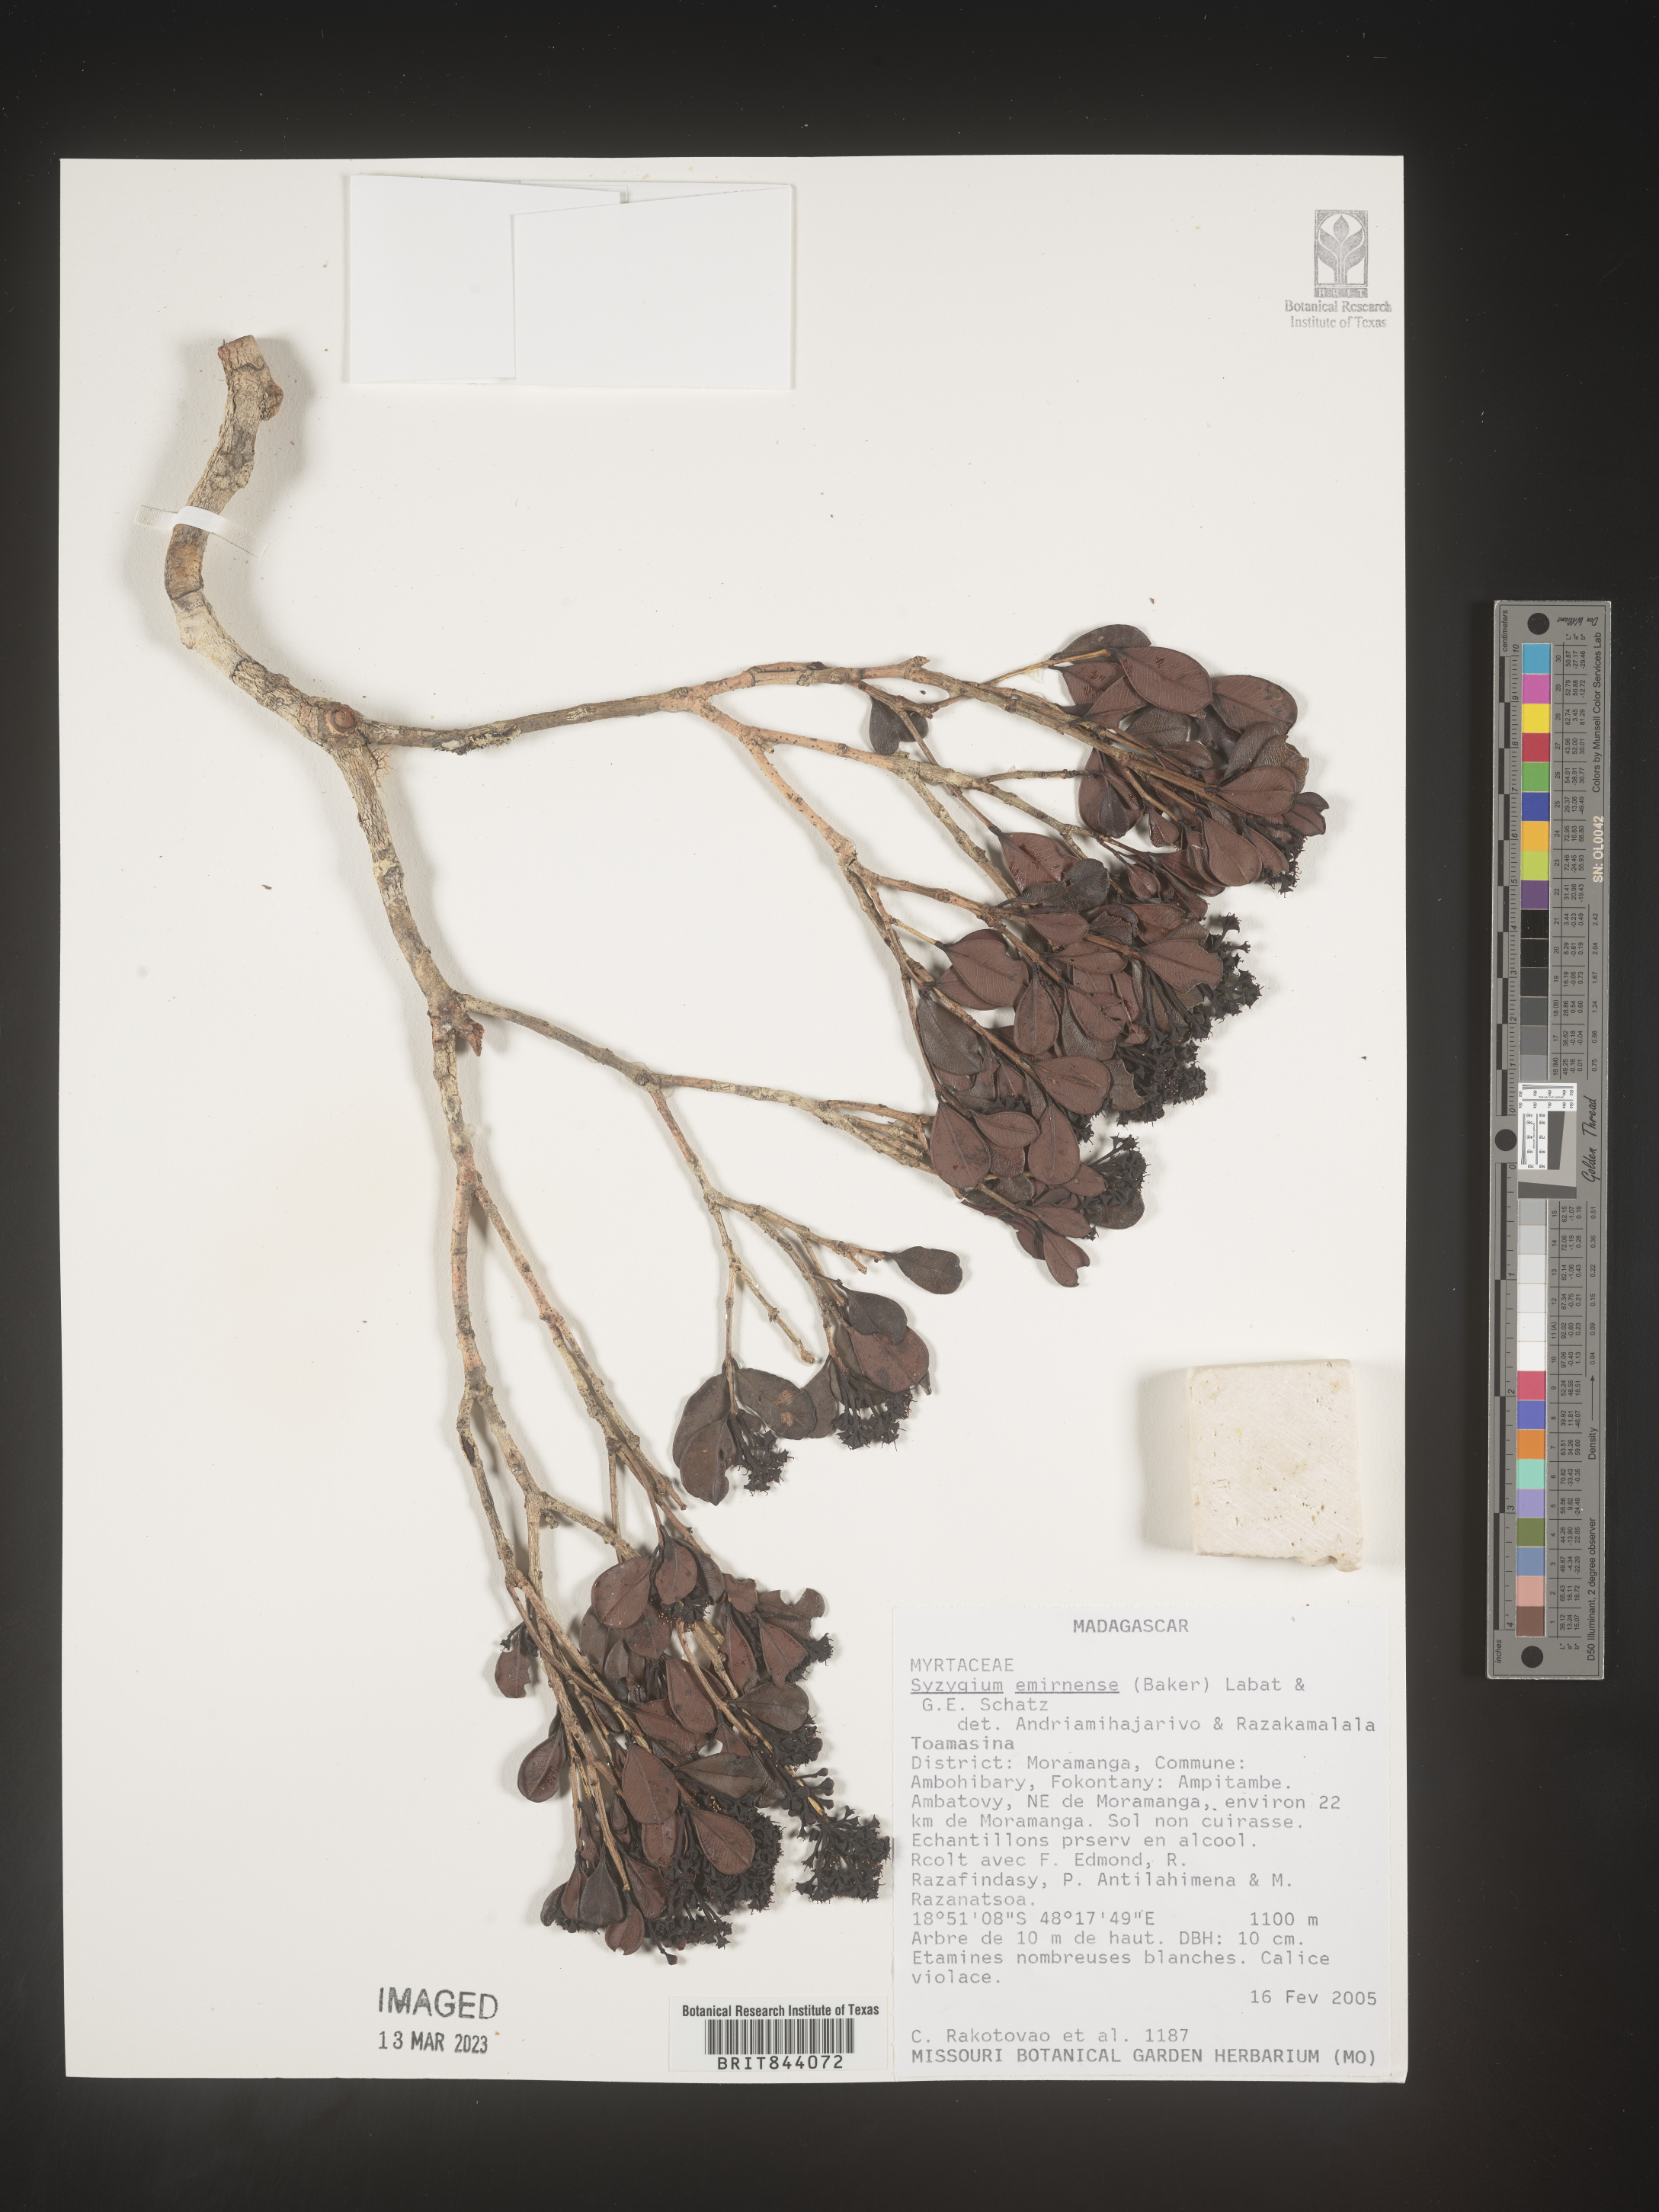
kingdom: Plantae
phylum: Tracheophyta
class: Magnoliopsida
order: Myrtales
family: Myrtaceae
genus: Syzygium
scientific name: Syzygium emirnense
